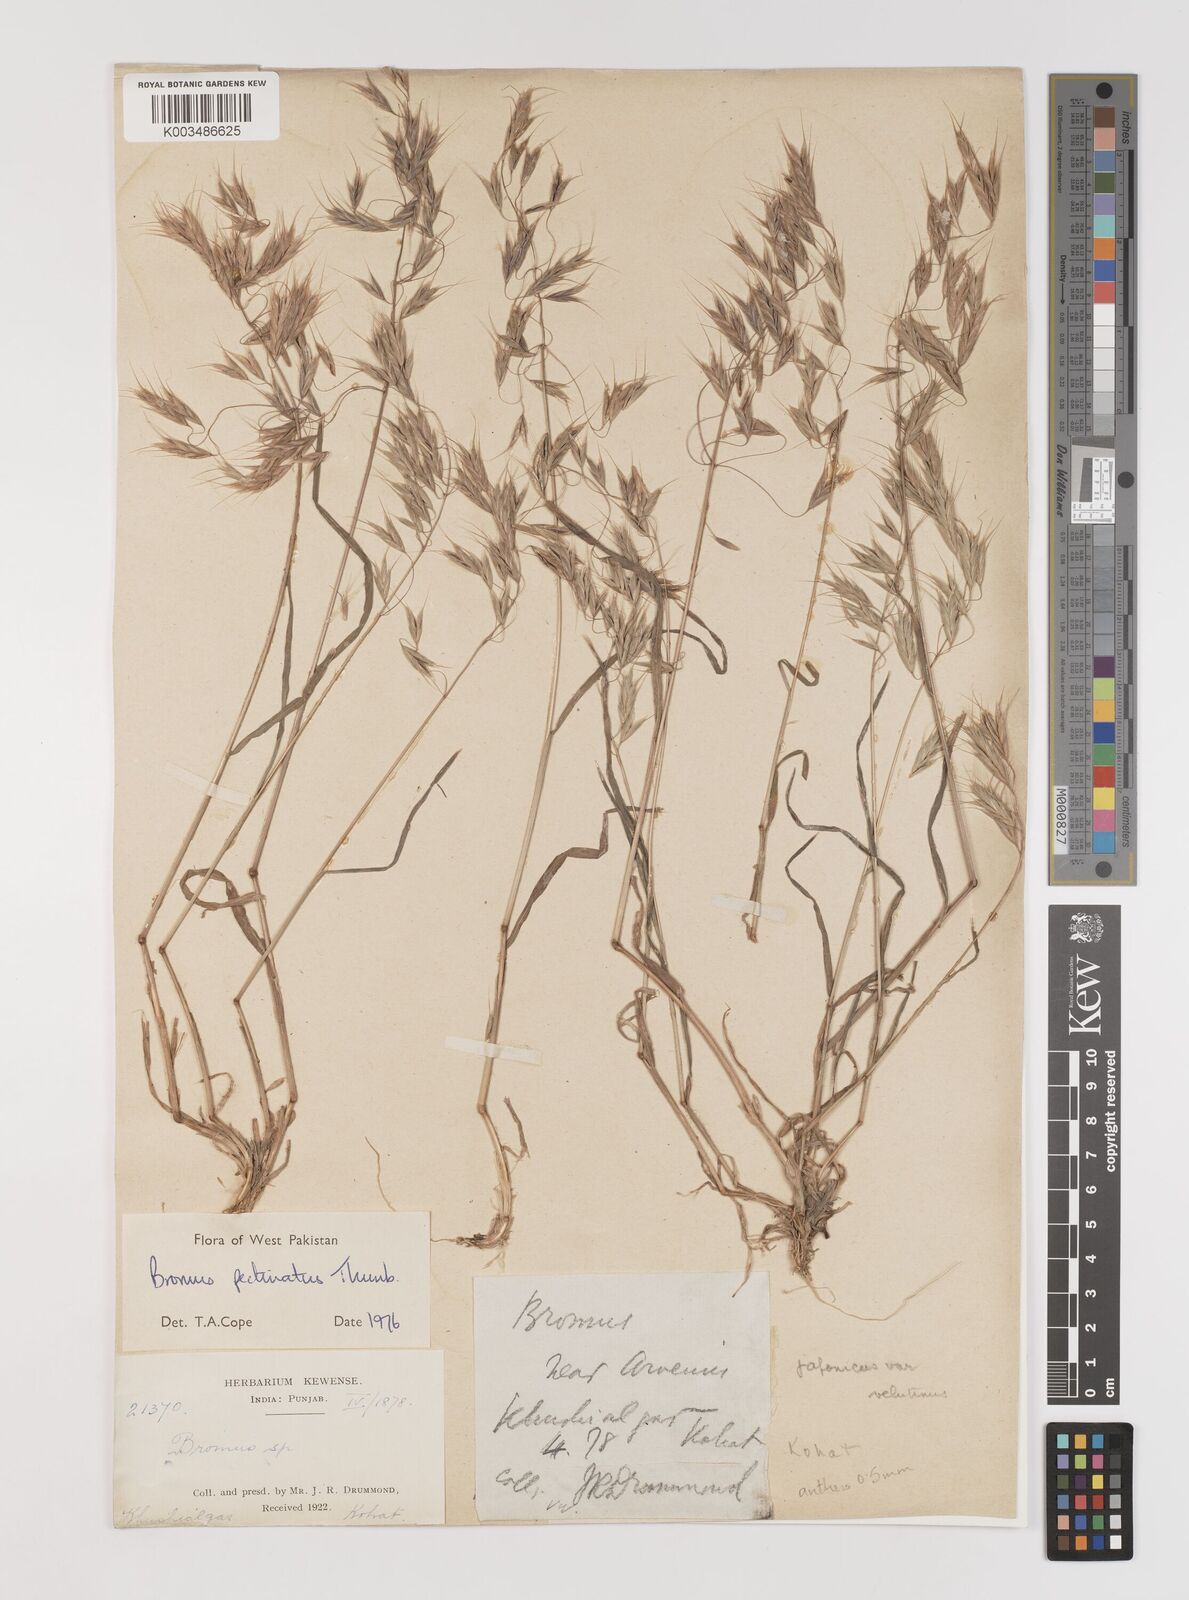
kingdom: Plantae
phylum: Tracheophyta
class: Liliopsida
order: Poales
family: Poaceae
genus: Bromus
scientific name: Bromus pectinatus
